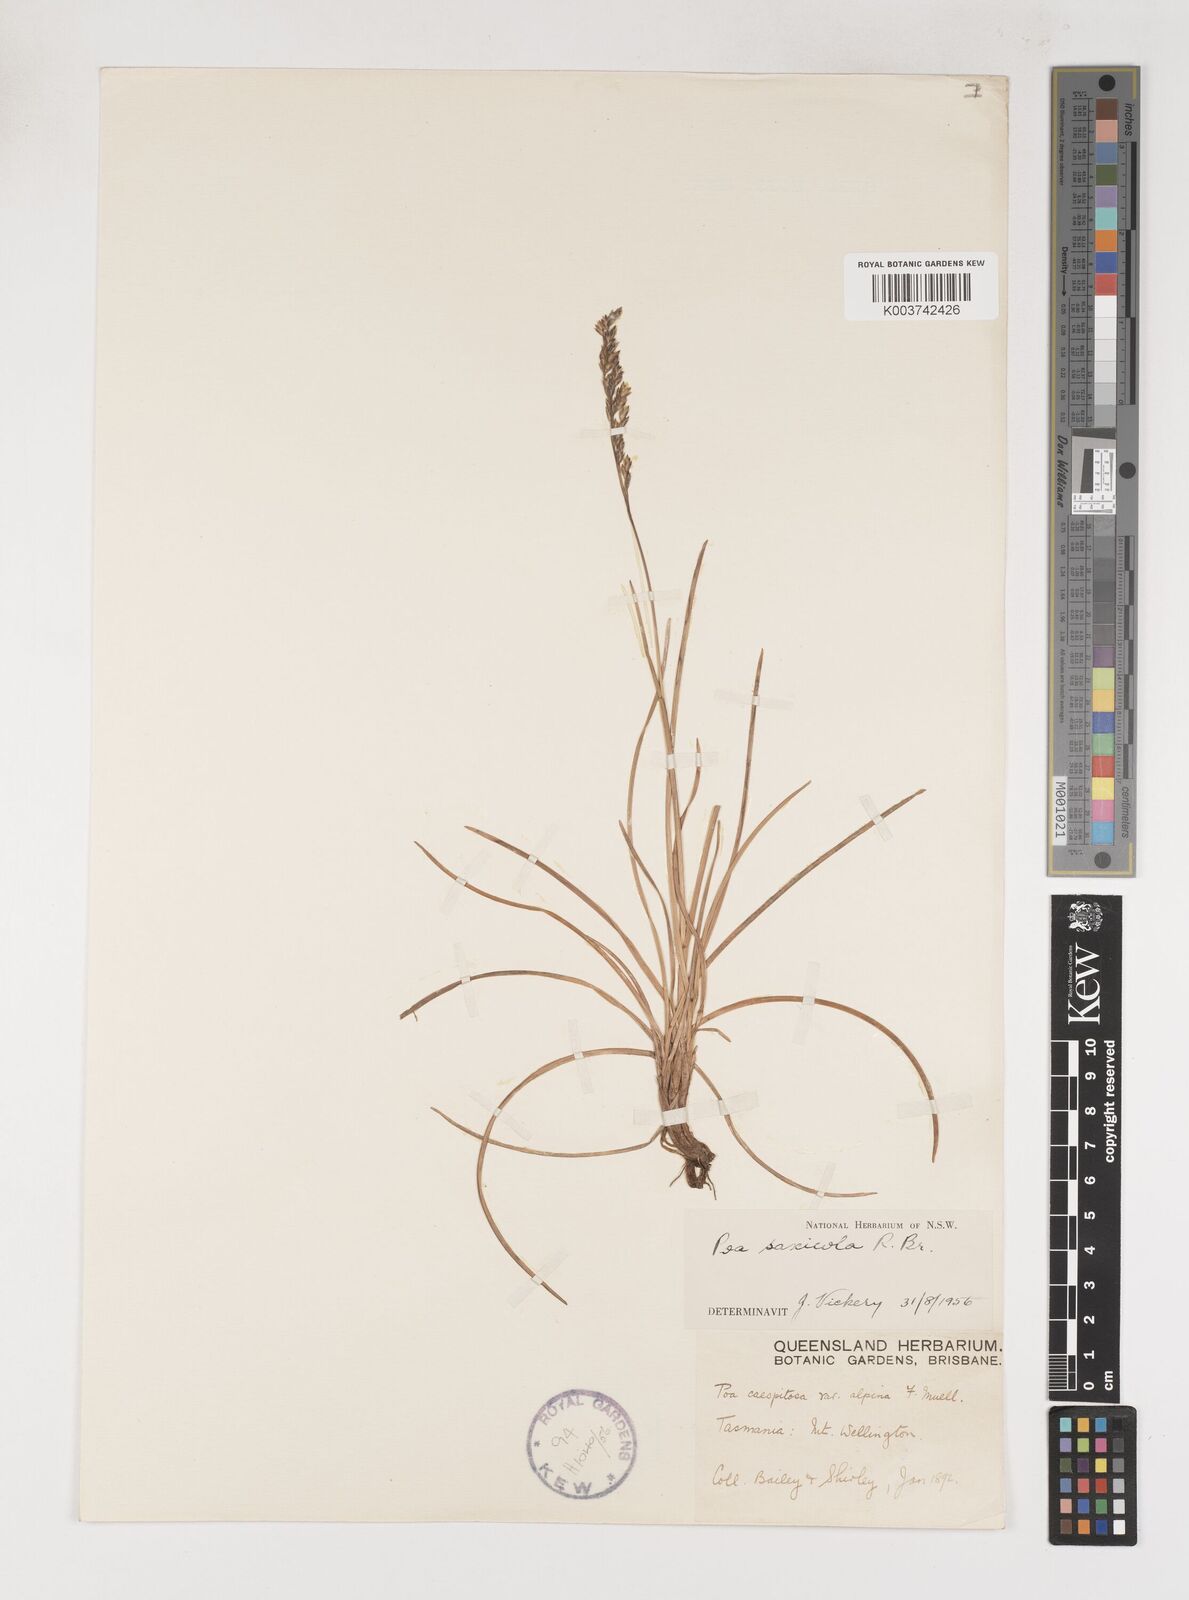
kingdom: Plantae
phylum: Tracheophyta
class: Liliopsida
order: Poales
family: Poaceae
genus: Saxipoa
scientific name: Saxipoa saxicola
